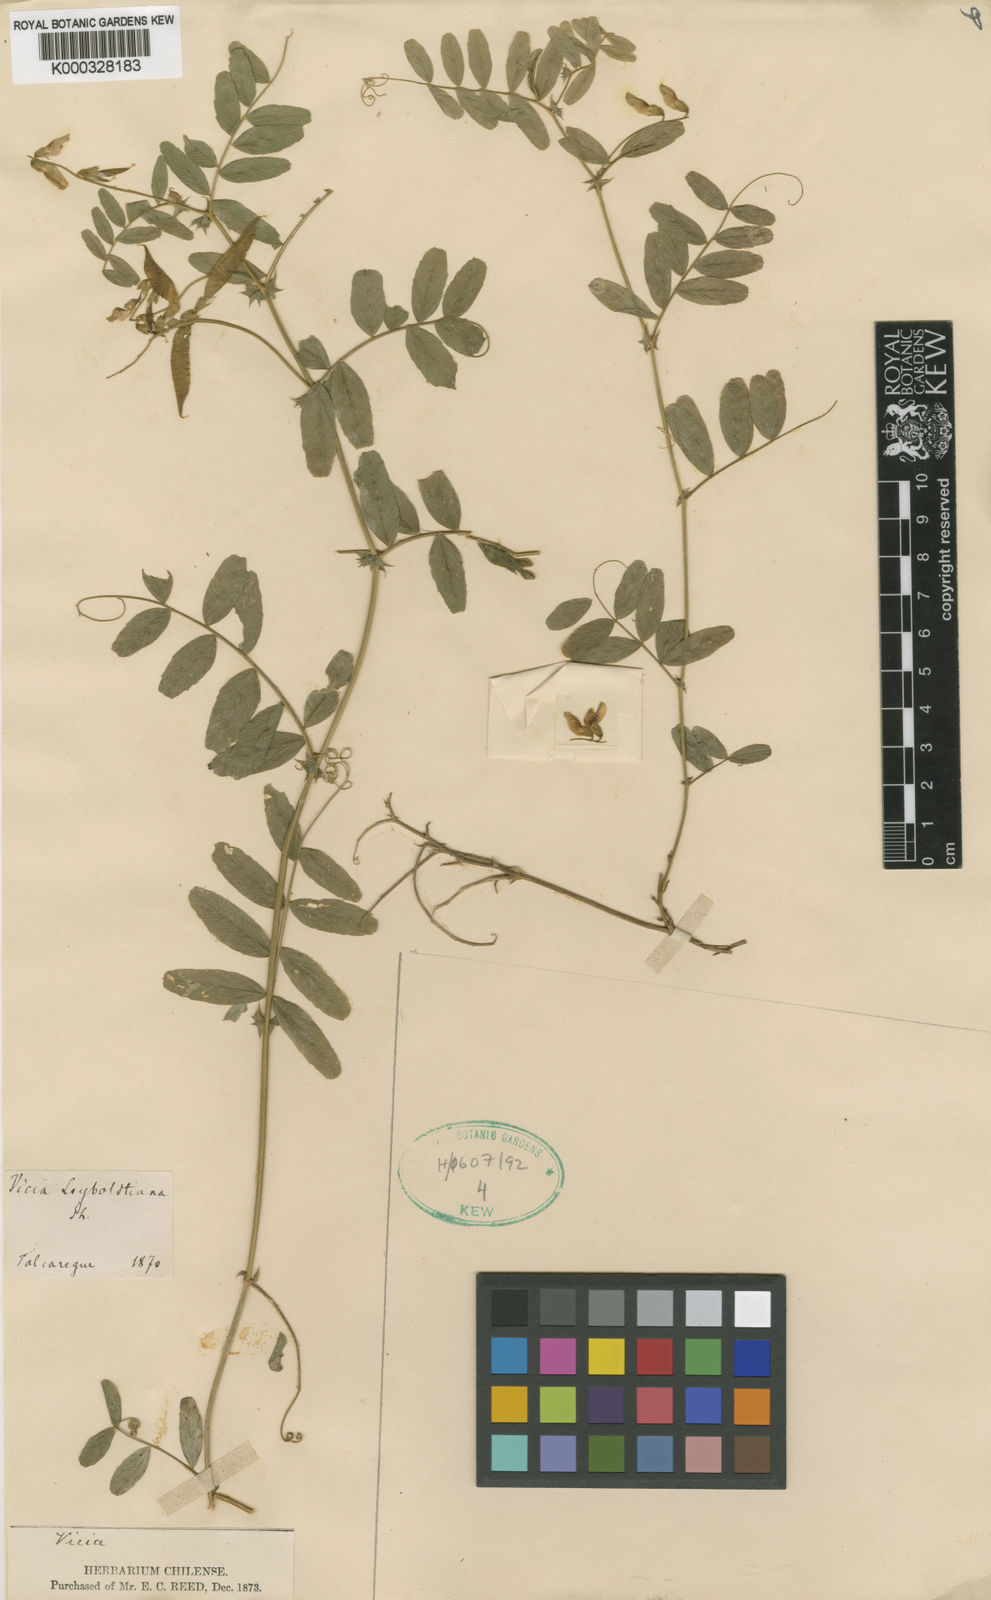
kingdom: Plantae
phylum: Tracheophyta
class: Magnoliopsida
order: Fabales
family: Fabaceae
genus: Vicia
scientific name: Vicia
